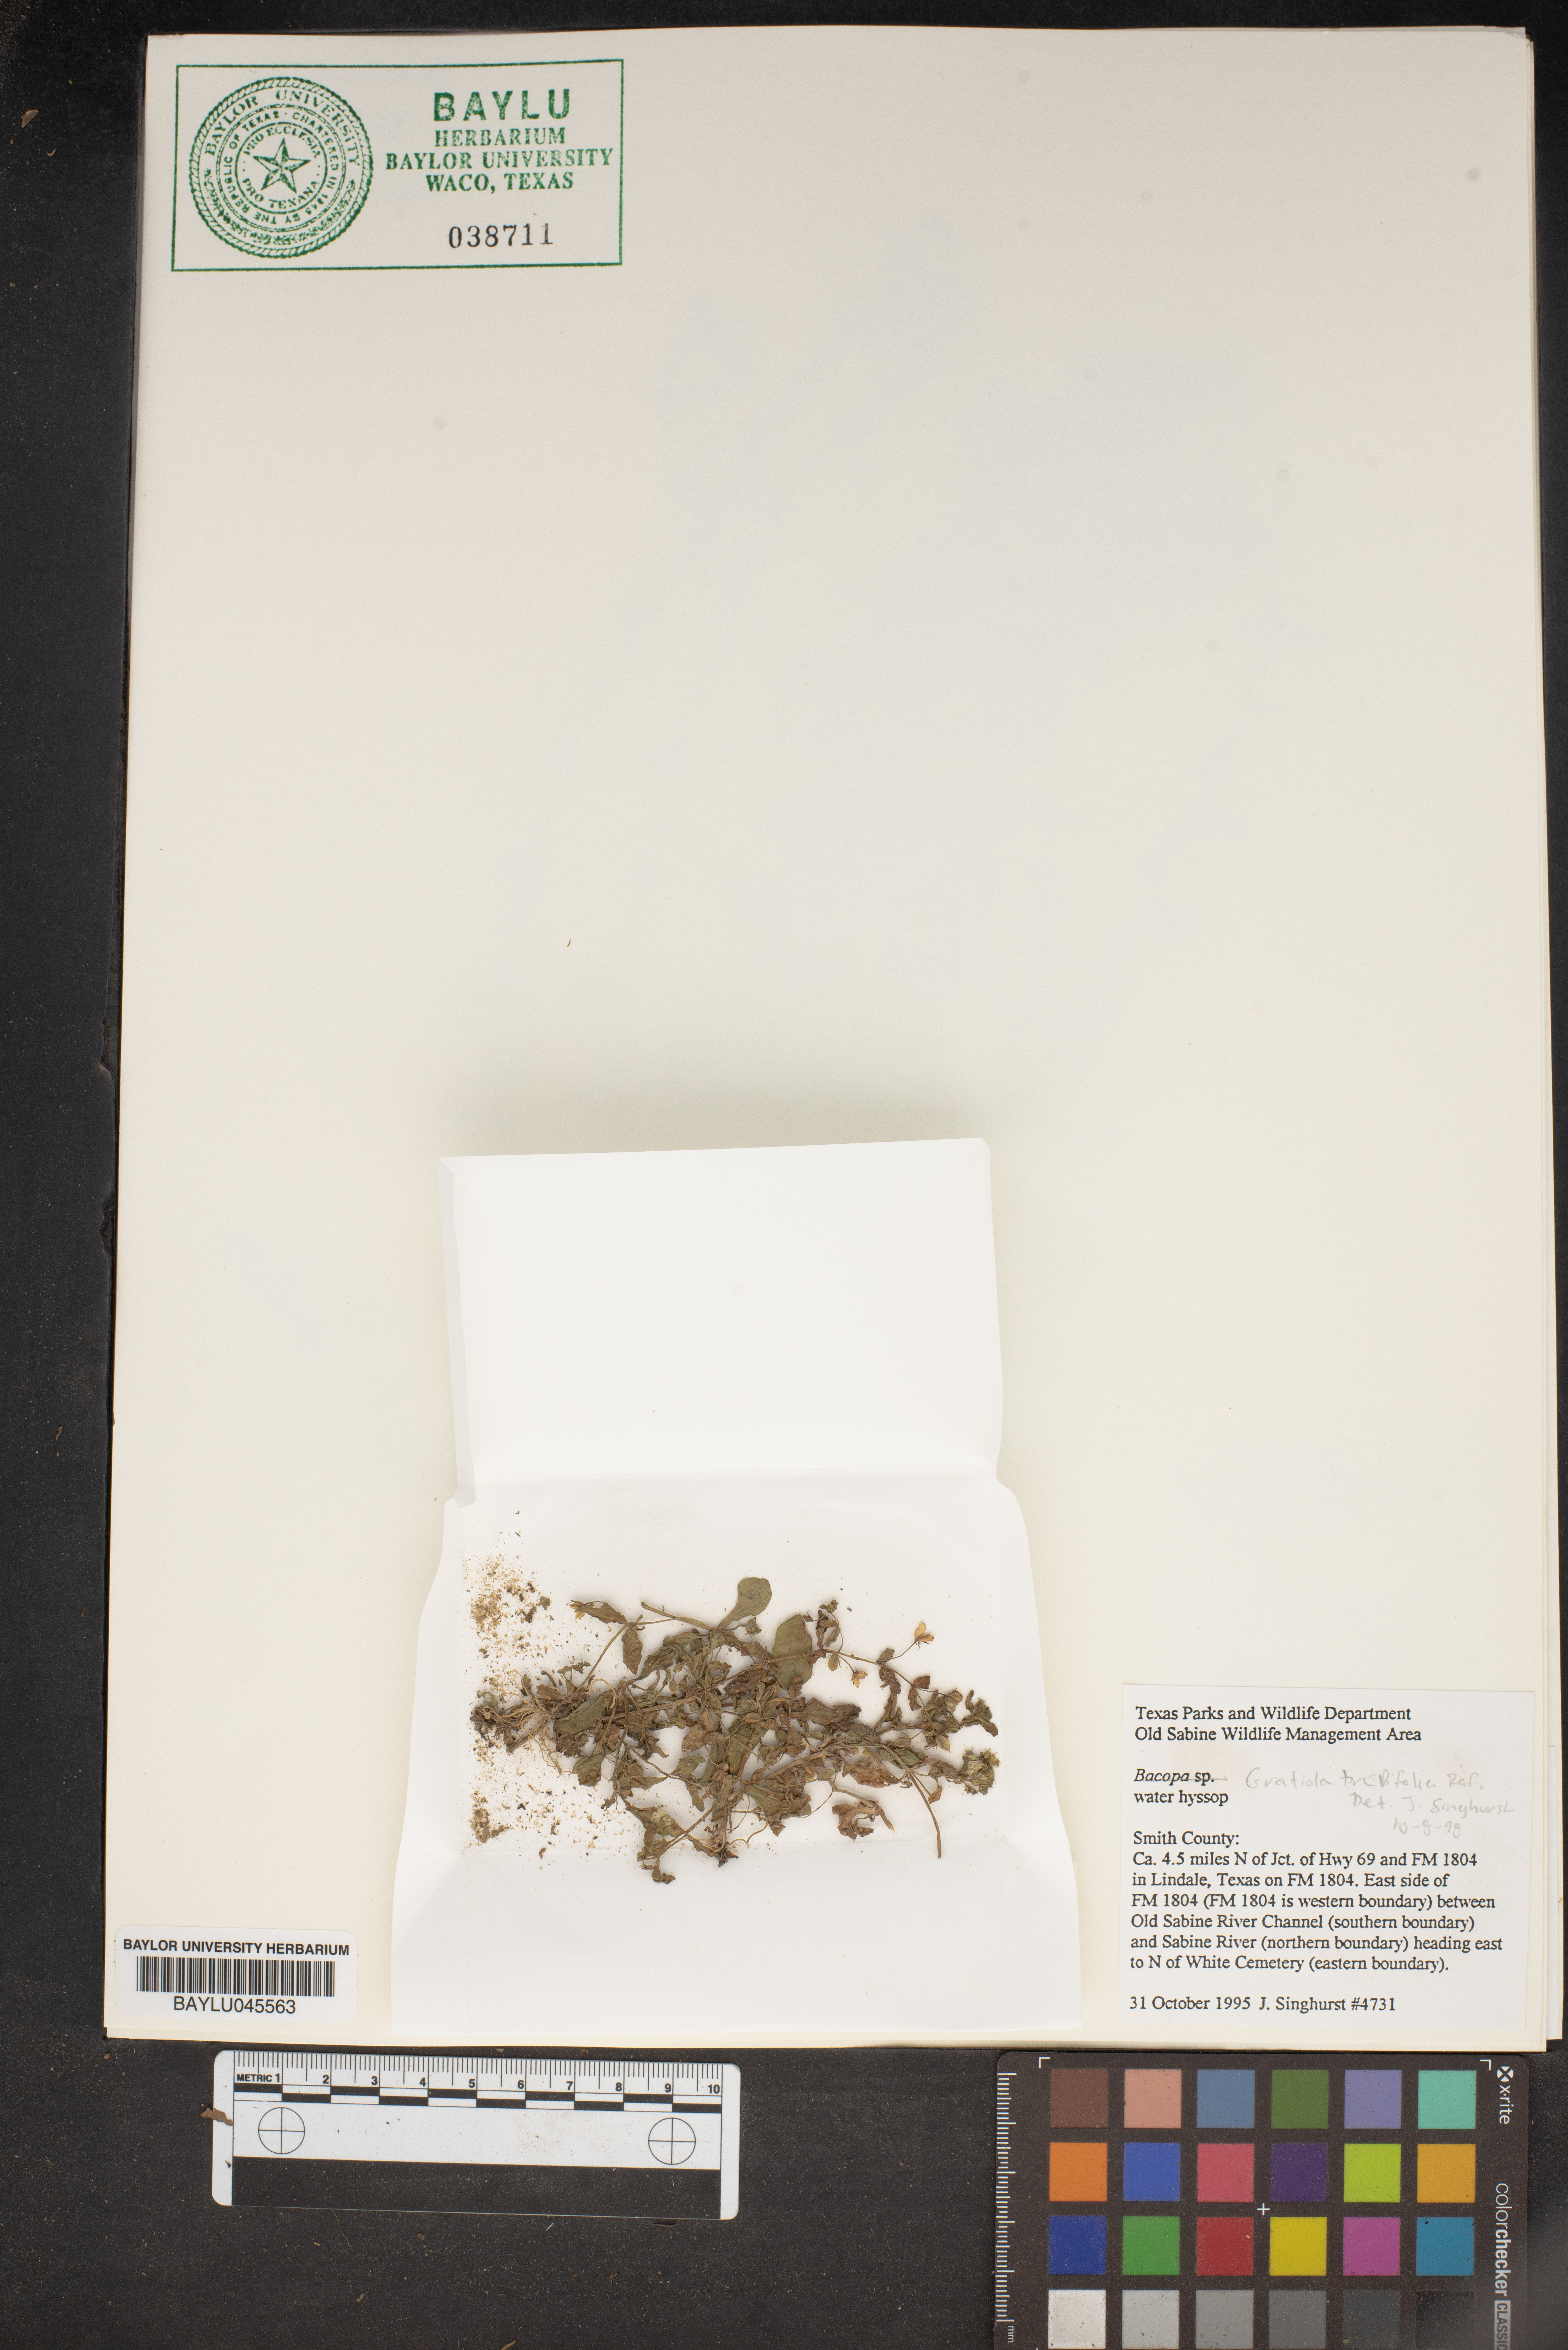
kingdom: Plantae
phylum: Tracheophyta
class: Magnoliopsida
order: Lamiales
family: Plantaginaceae
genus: Bacopa
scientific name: Bacopa
